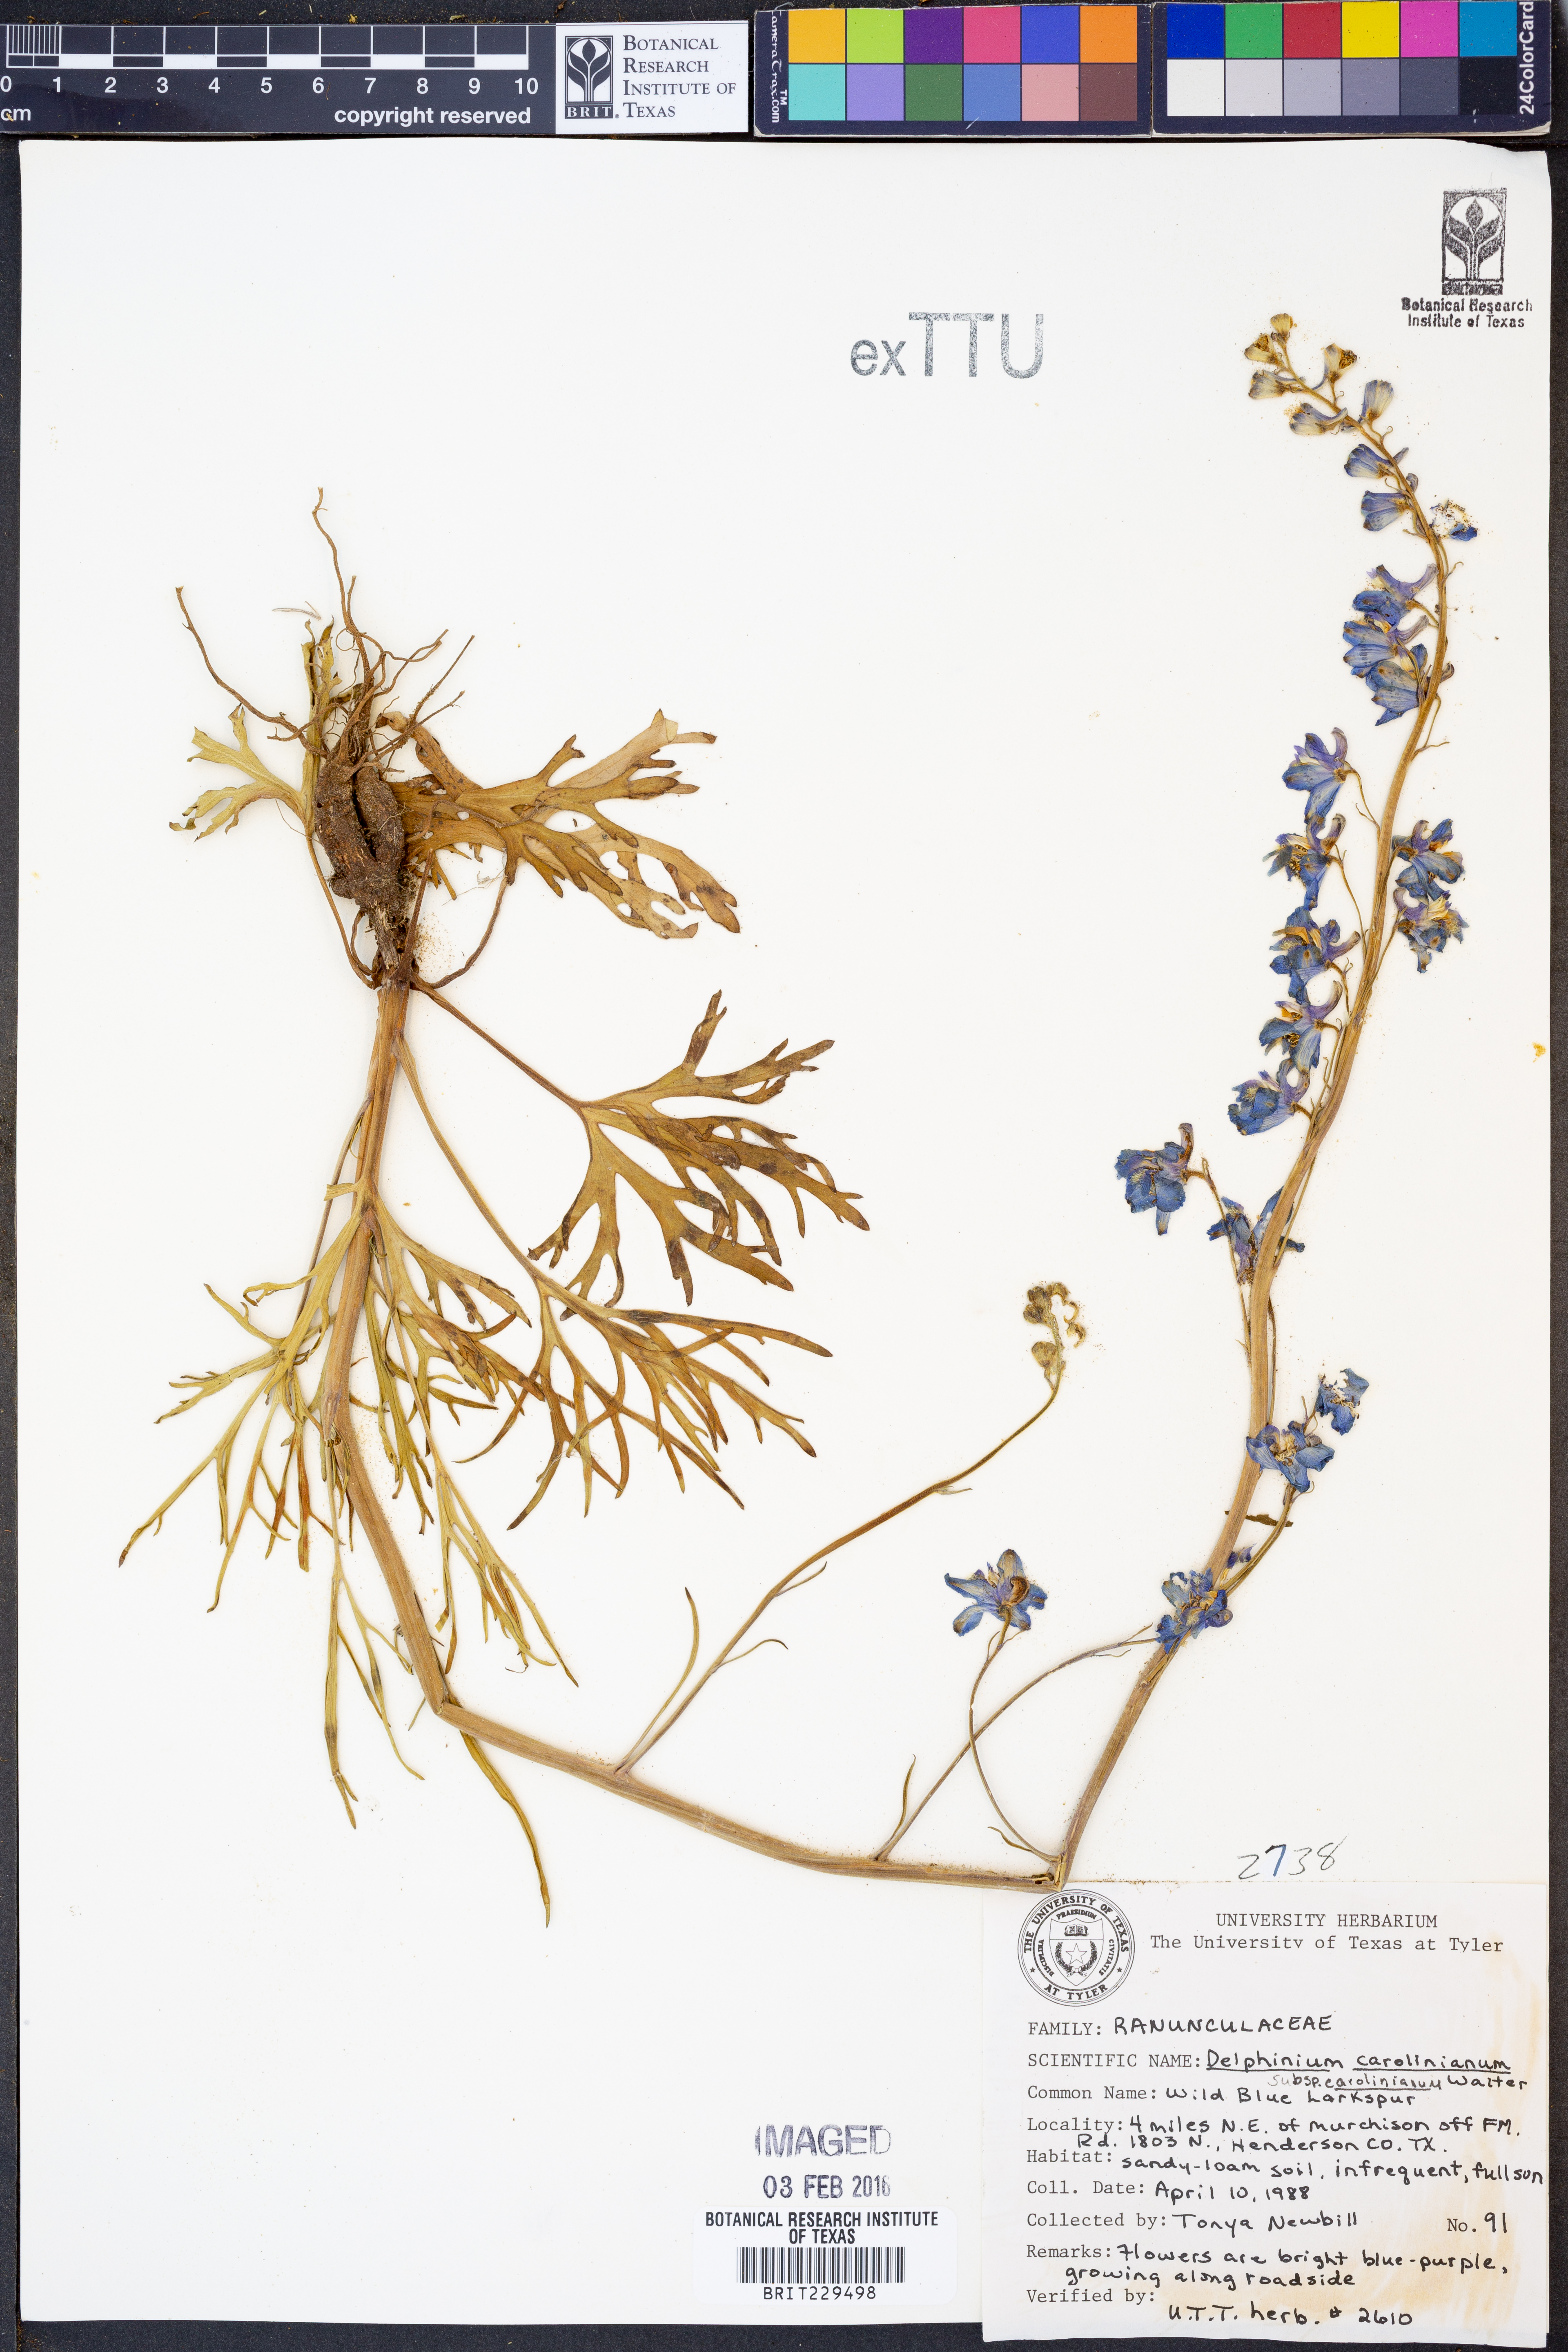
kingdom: Plantae
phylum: Tracheophyta
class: Magnoliopsida
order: Ranunculales
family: Ranunculaceae
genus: Delphinium
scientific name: Delphinium carolinianum
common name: Carolina larkspur
